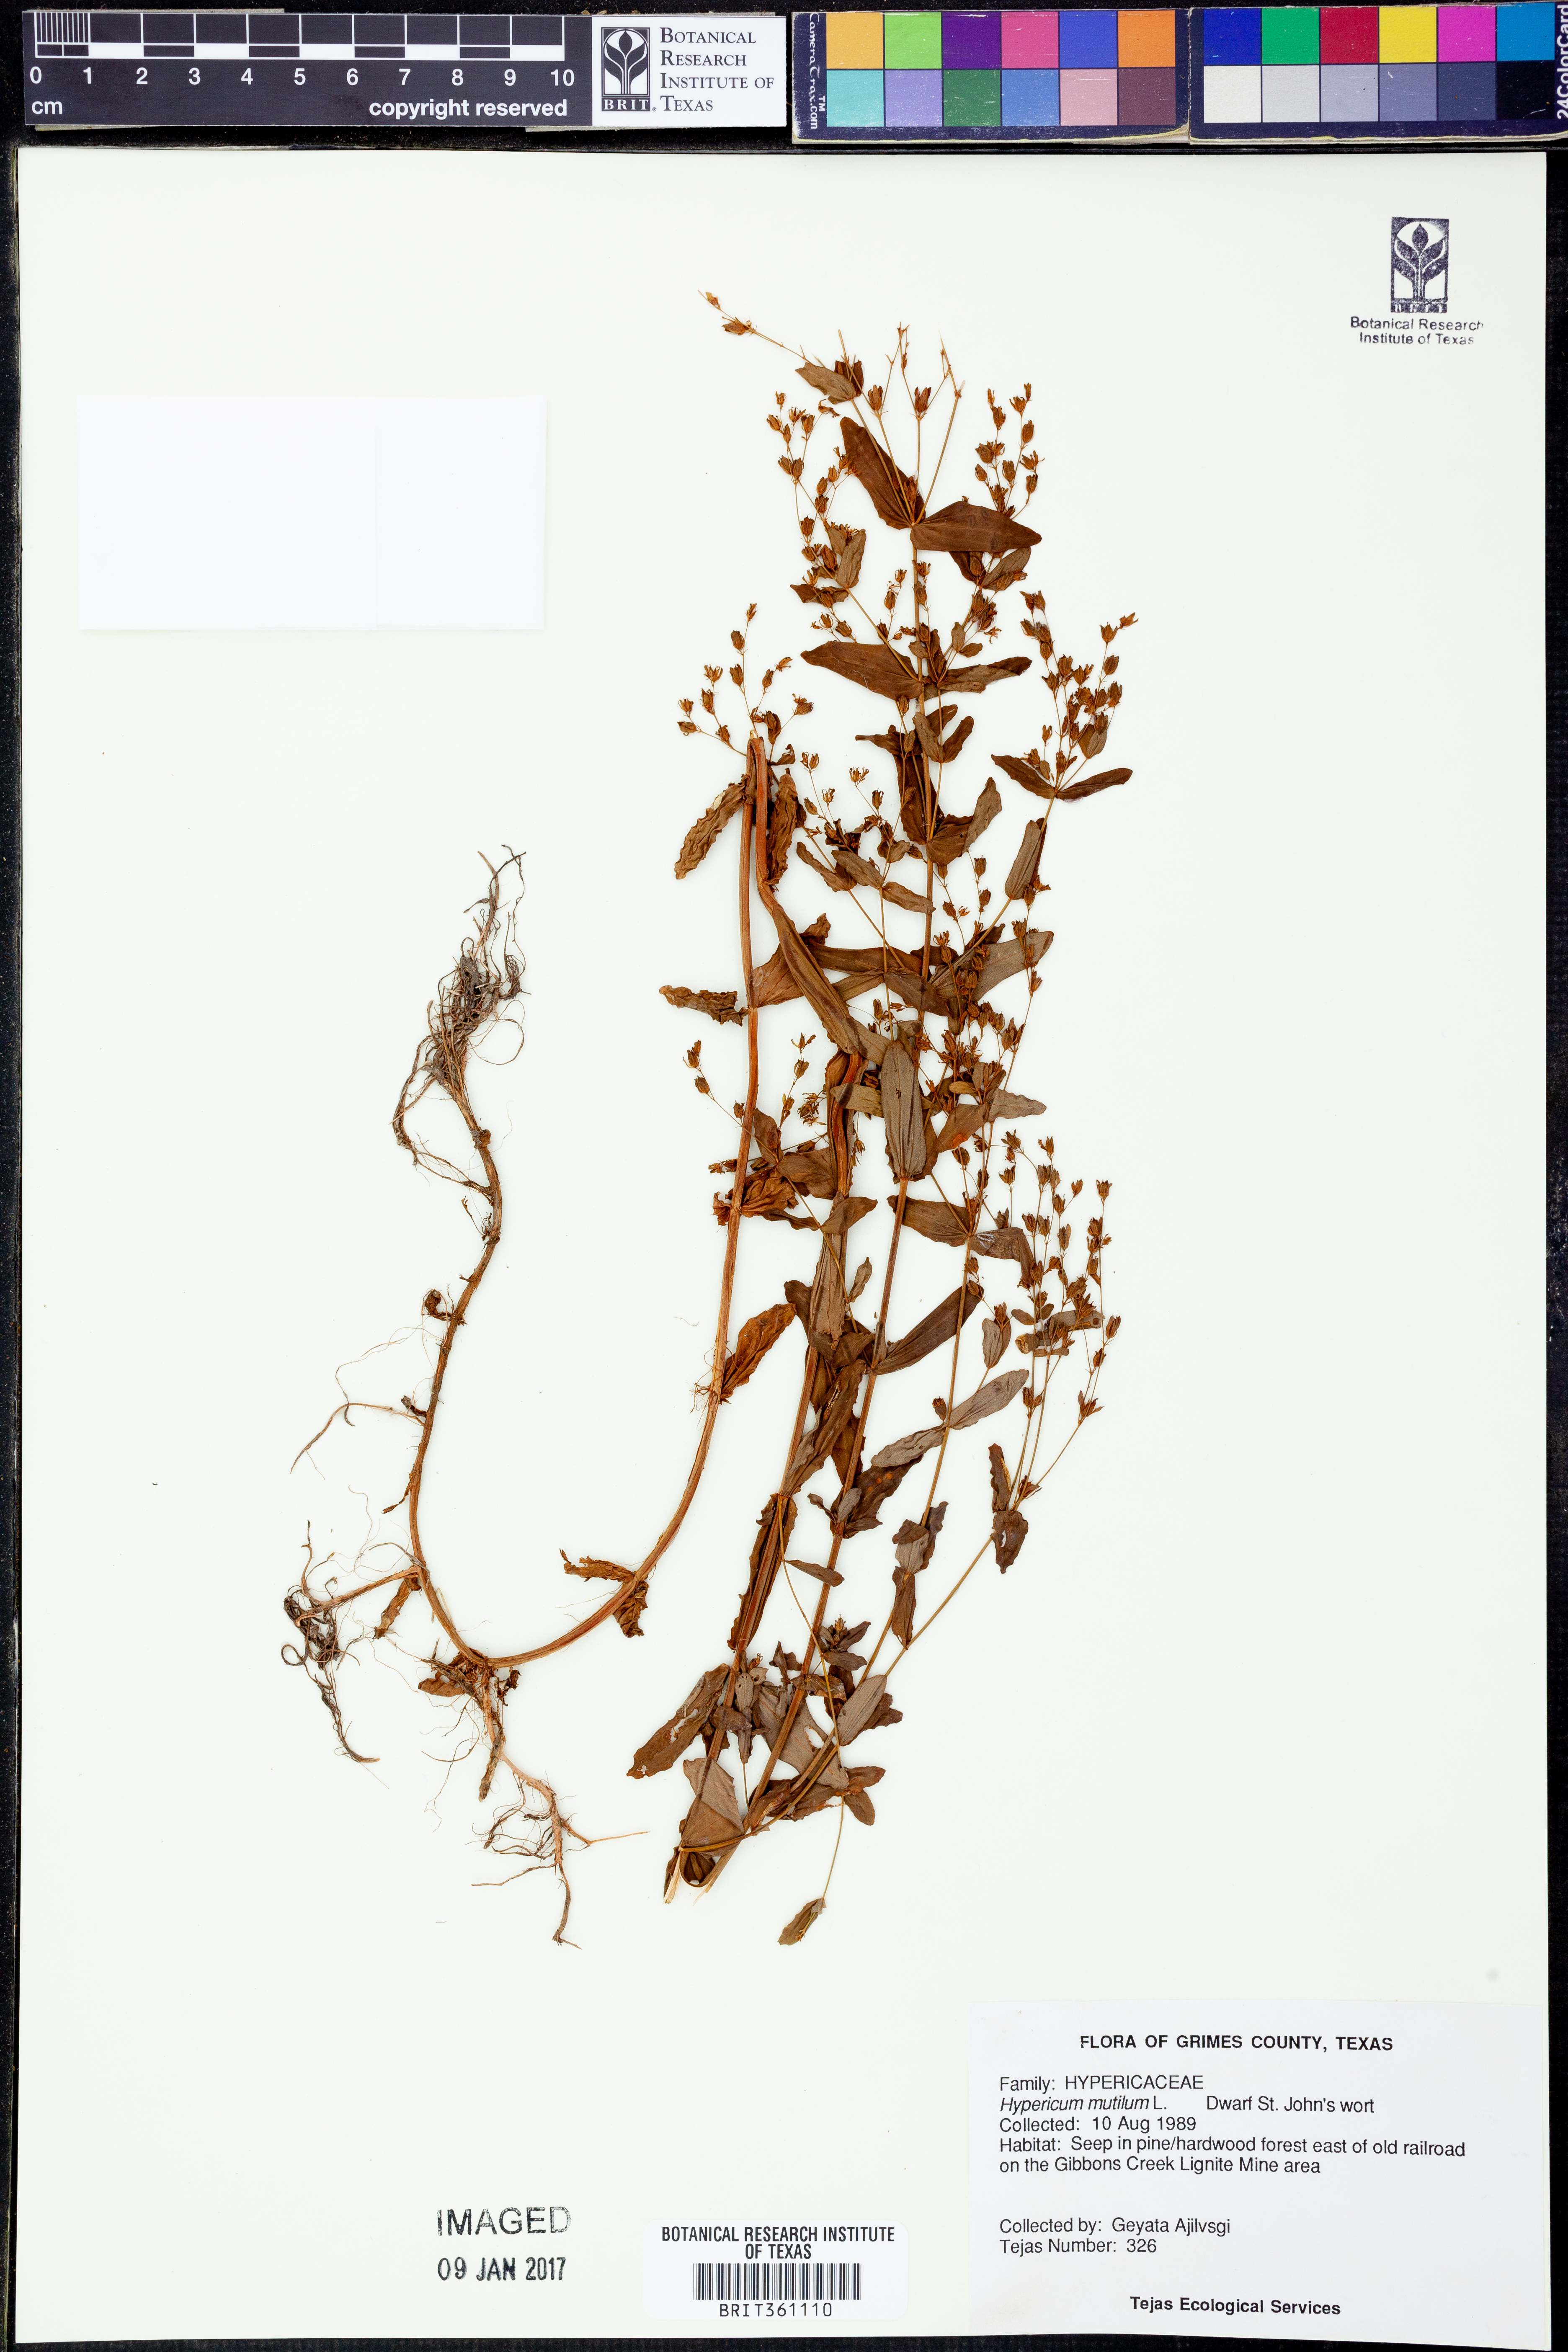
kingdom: Plantae
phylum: Tracheophyta
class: Magnoliopsida
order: Malpighiales
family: Hypericaceae
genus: Hypericum
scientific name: Hypericum mutilum
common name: Dwarf st. john's-wort
